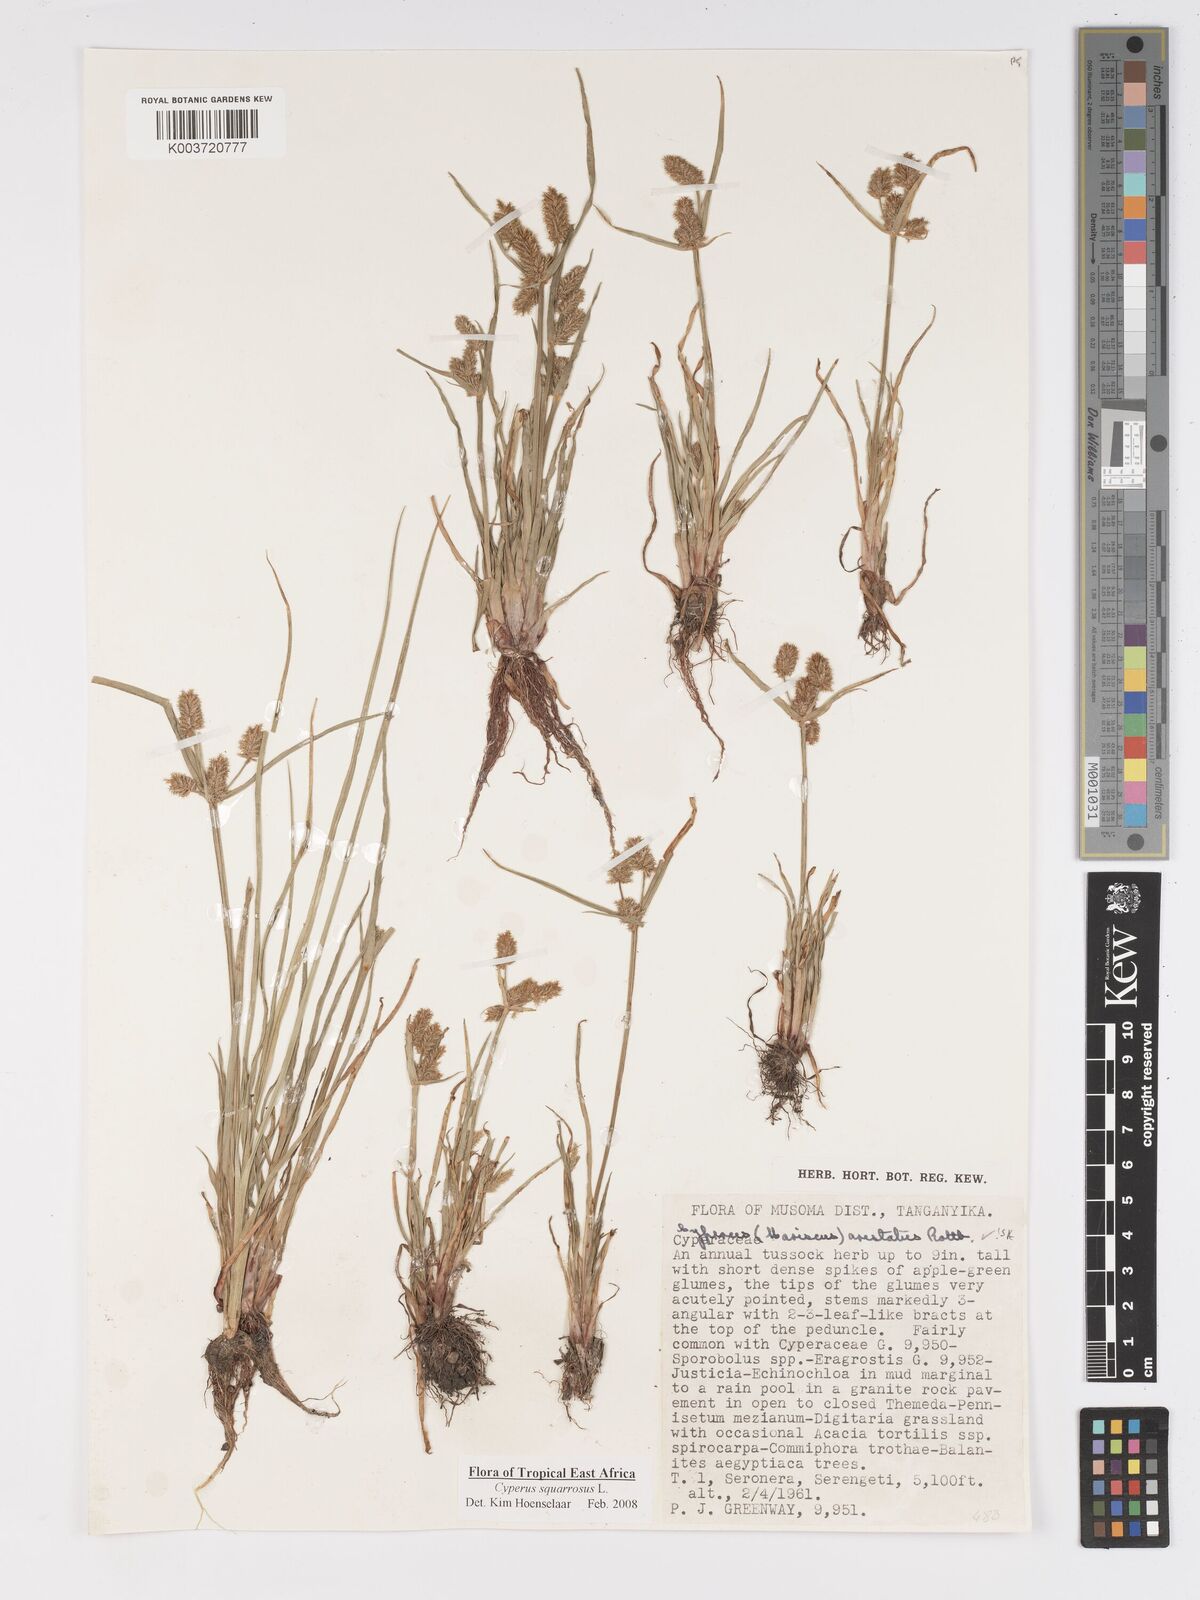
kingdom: Plantae
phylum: Tracheophyta
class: Liliopsida
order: Poales
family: Cyperaceae
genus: Cyperus
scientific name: Cyperus squarrosus
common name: Awned cyperus
